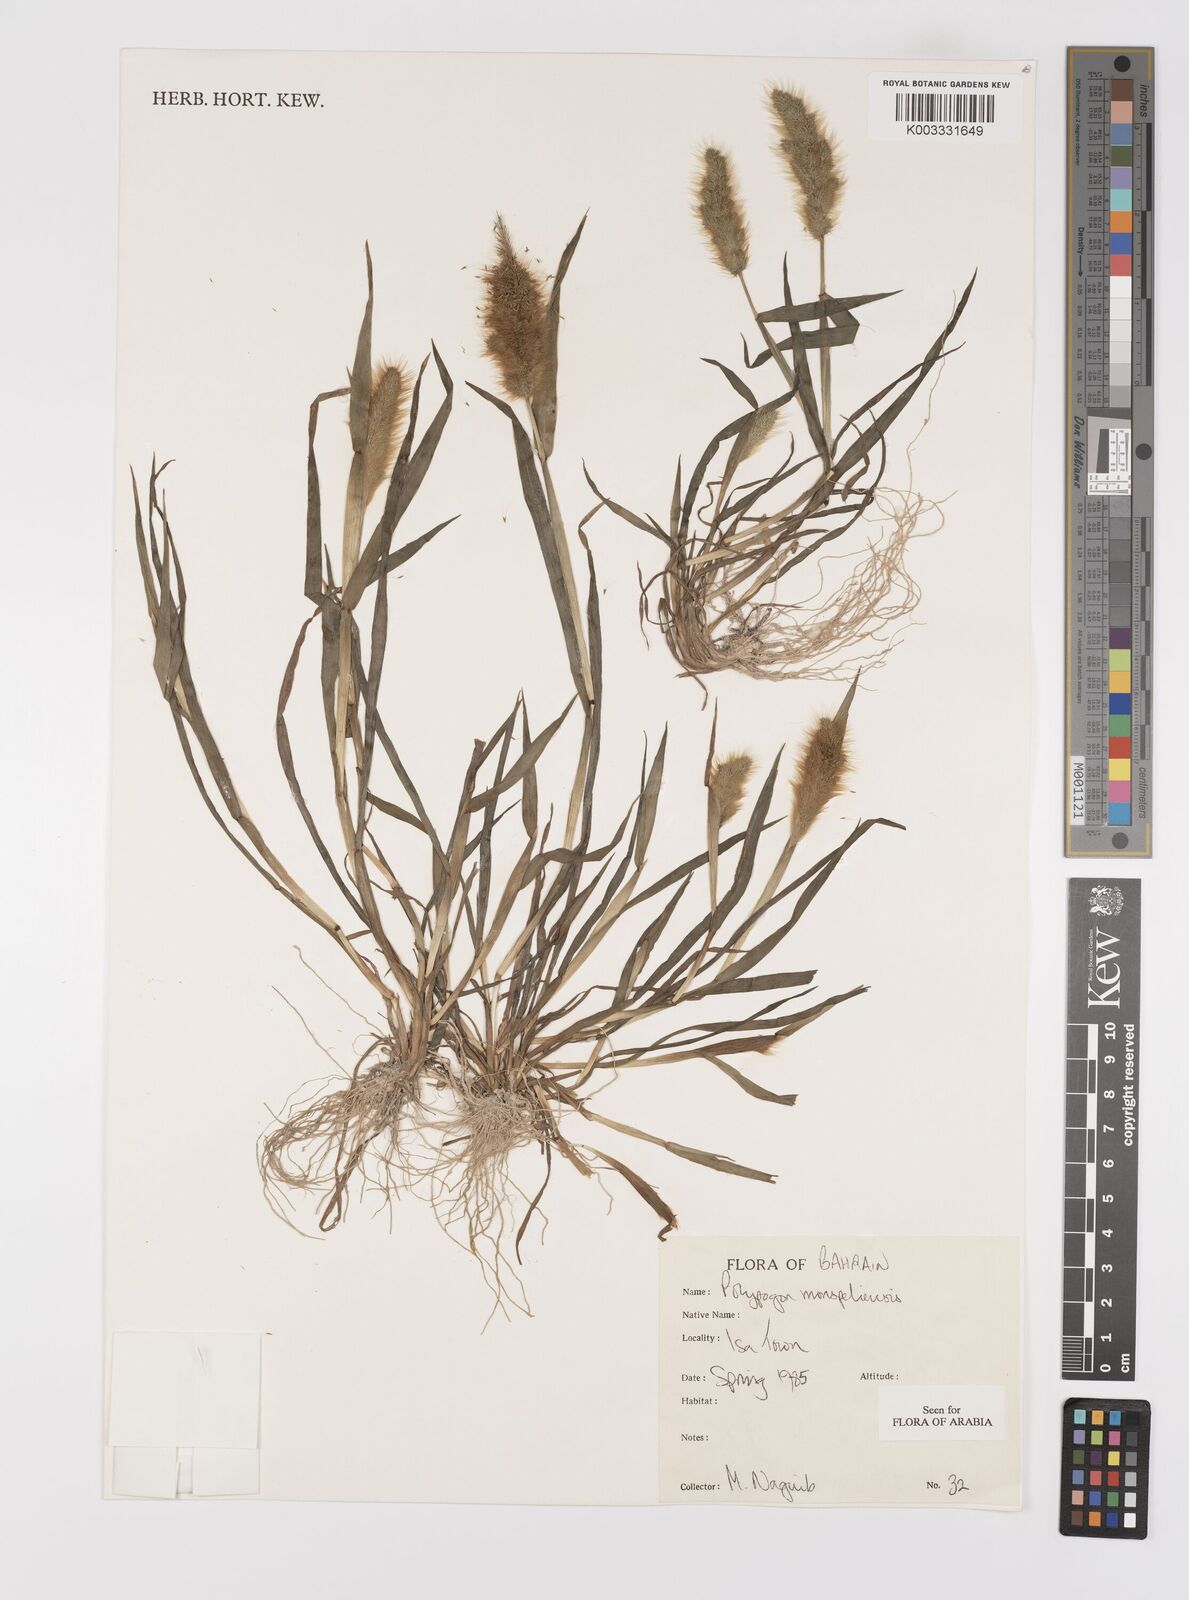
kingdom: Plantae
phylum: Tracheophyta
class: Liliopsida
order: Poales
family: Poaceae
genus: Polypogon
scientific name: Polypogon monspeliensis
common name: Annual rabbitsfoot grass
